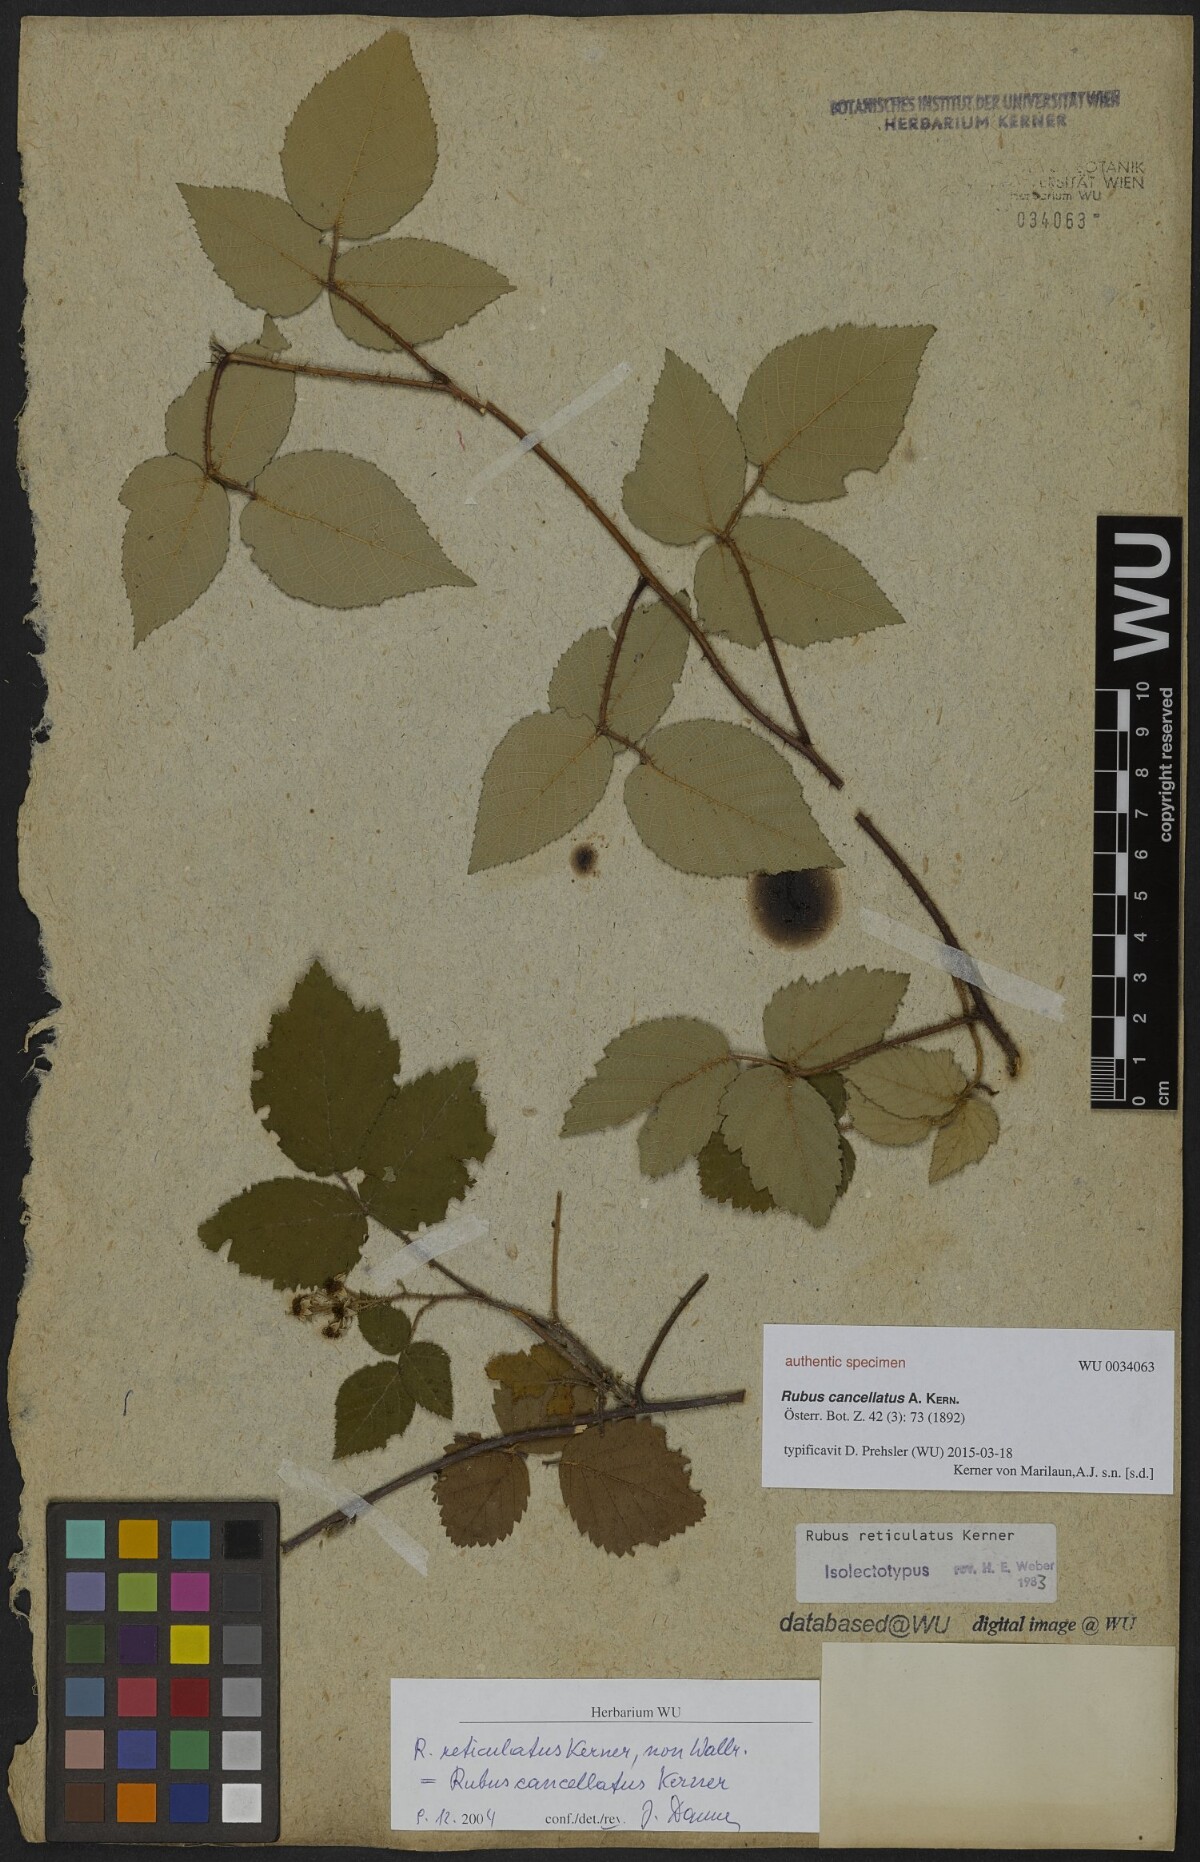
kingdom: Plantae
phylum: Tracheophyta
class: Magnoliopsida
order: Rosales
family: Rosaceae
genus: Rubus
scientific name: Rubus reticulatus
